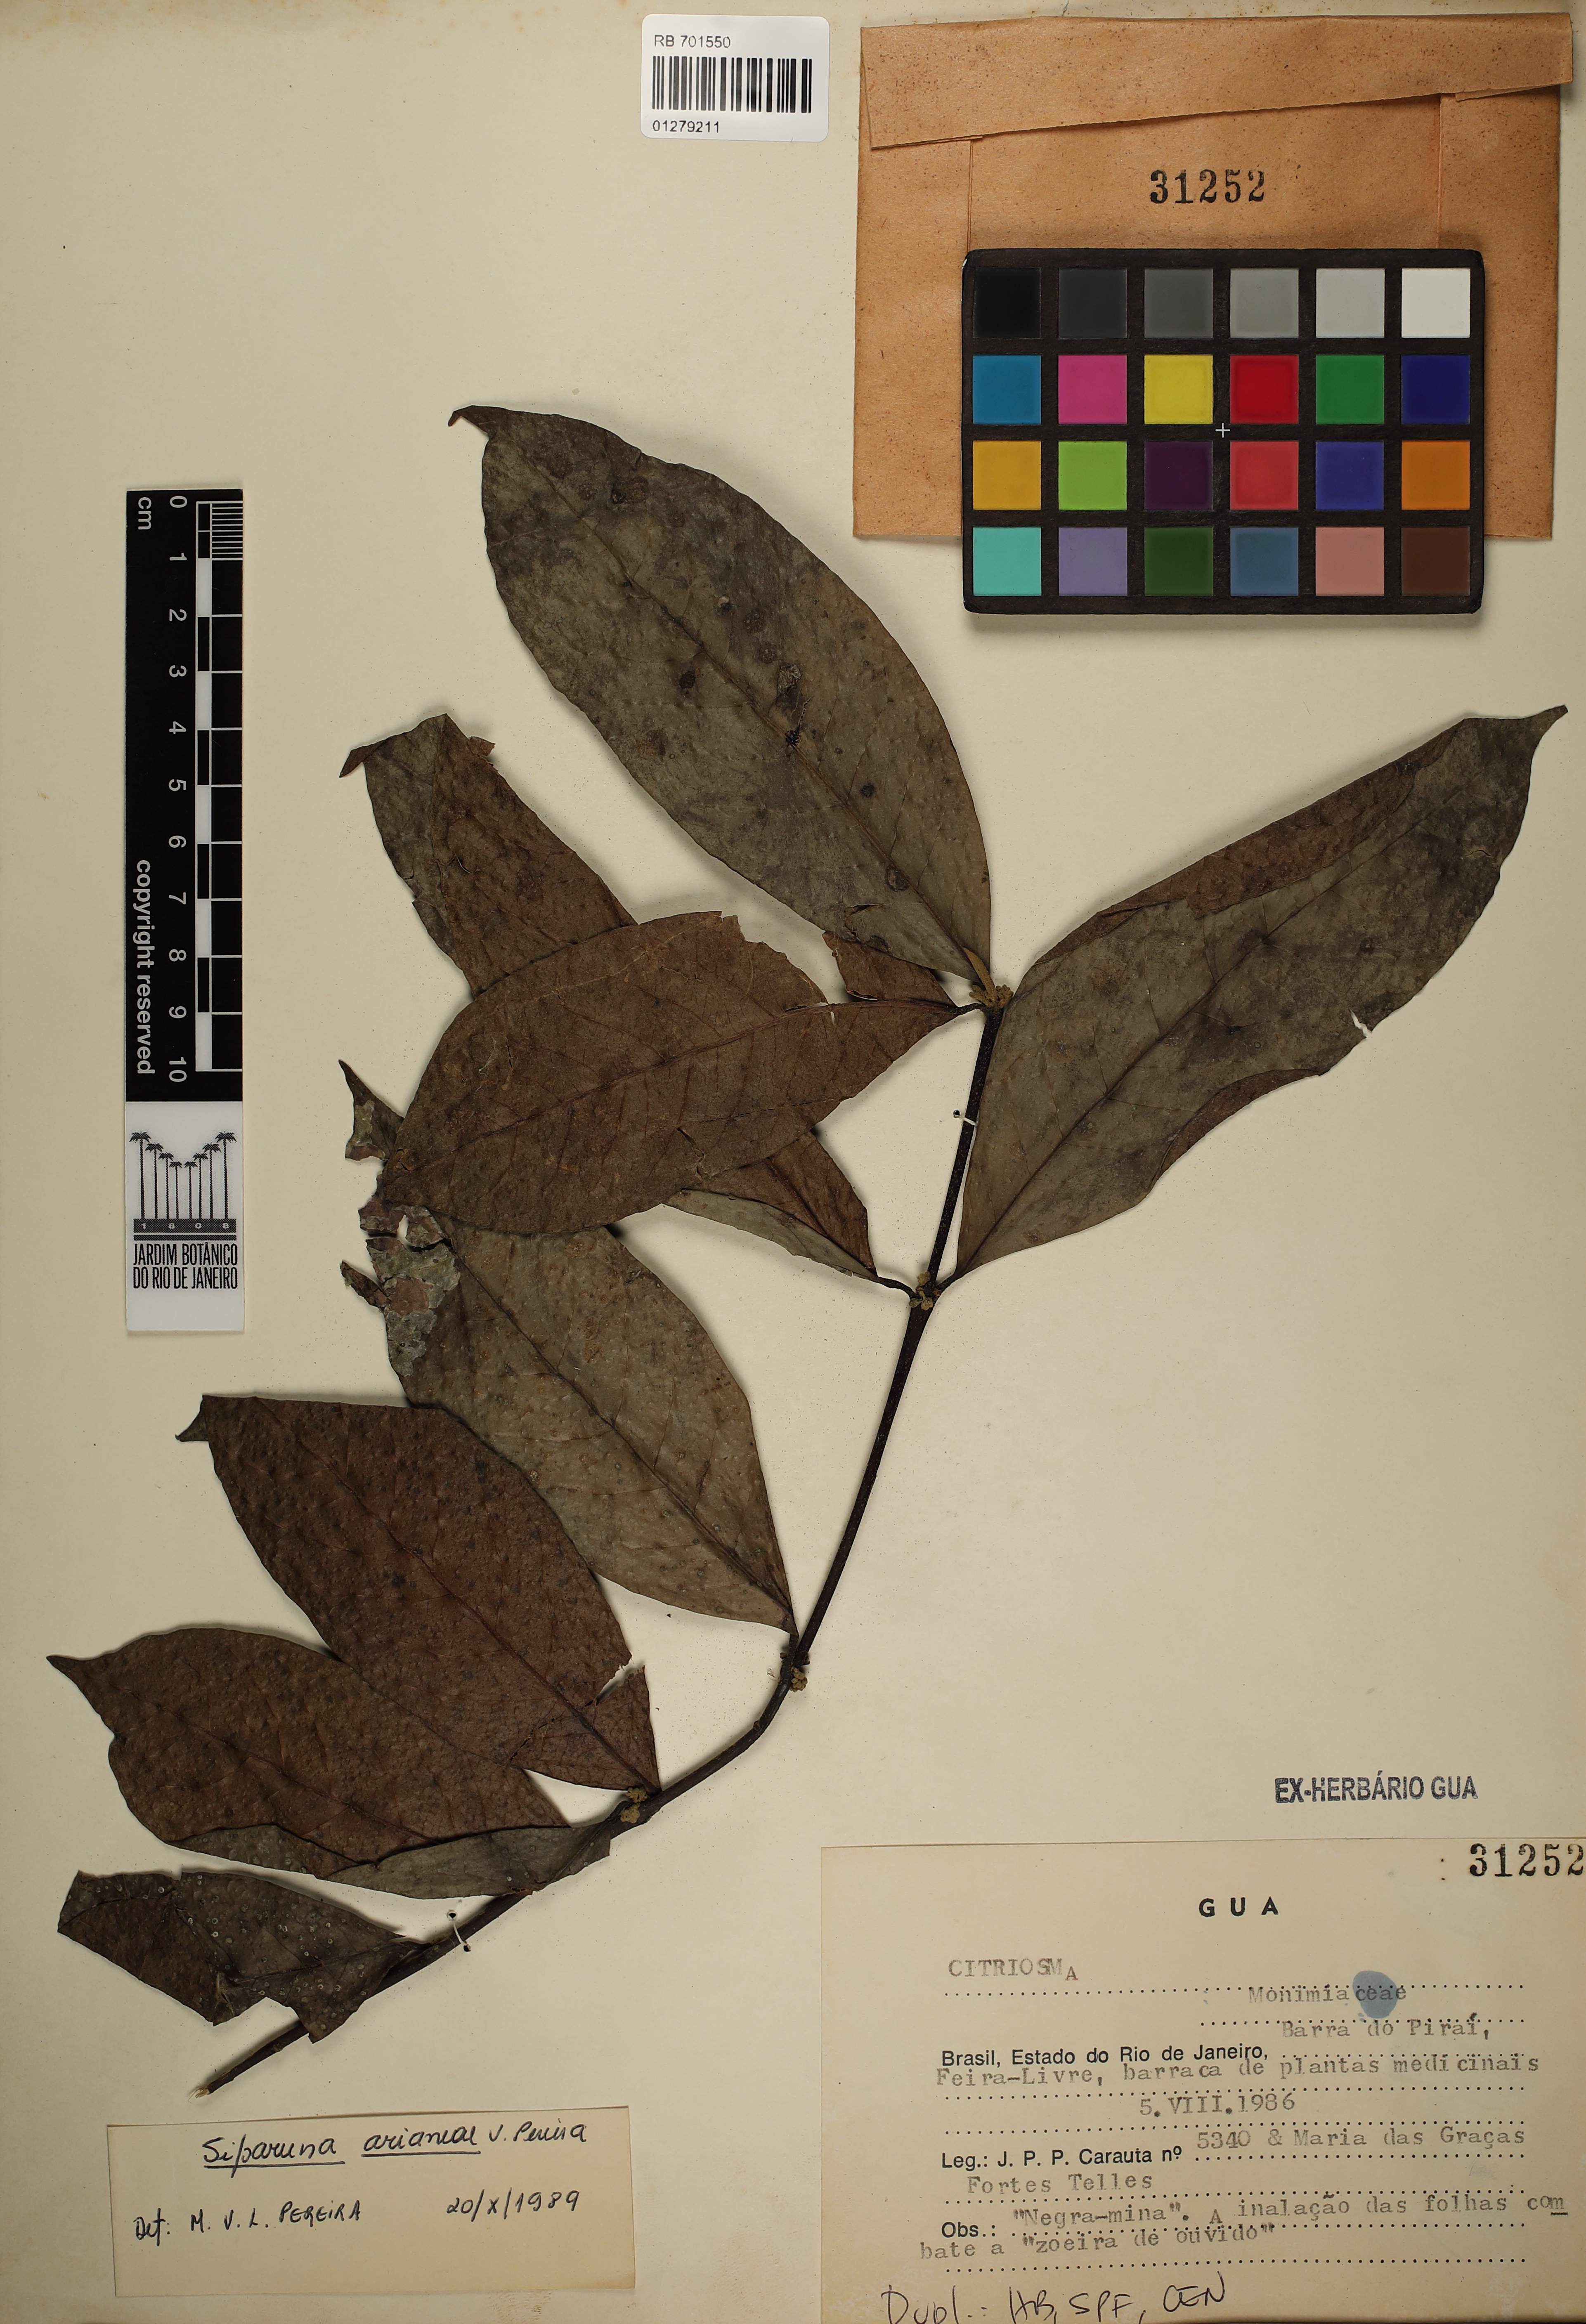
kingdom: Plantae
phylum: Tracheophyta
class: Magnoliopsida
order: Laurales
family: Siparunaceae
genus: Siparuna
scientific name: Siparuna guianensis
